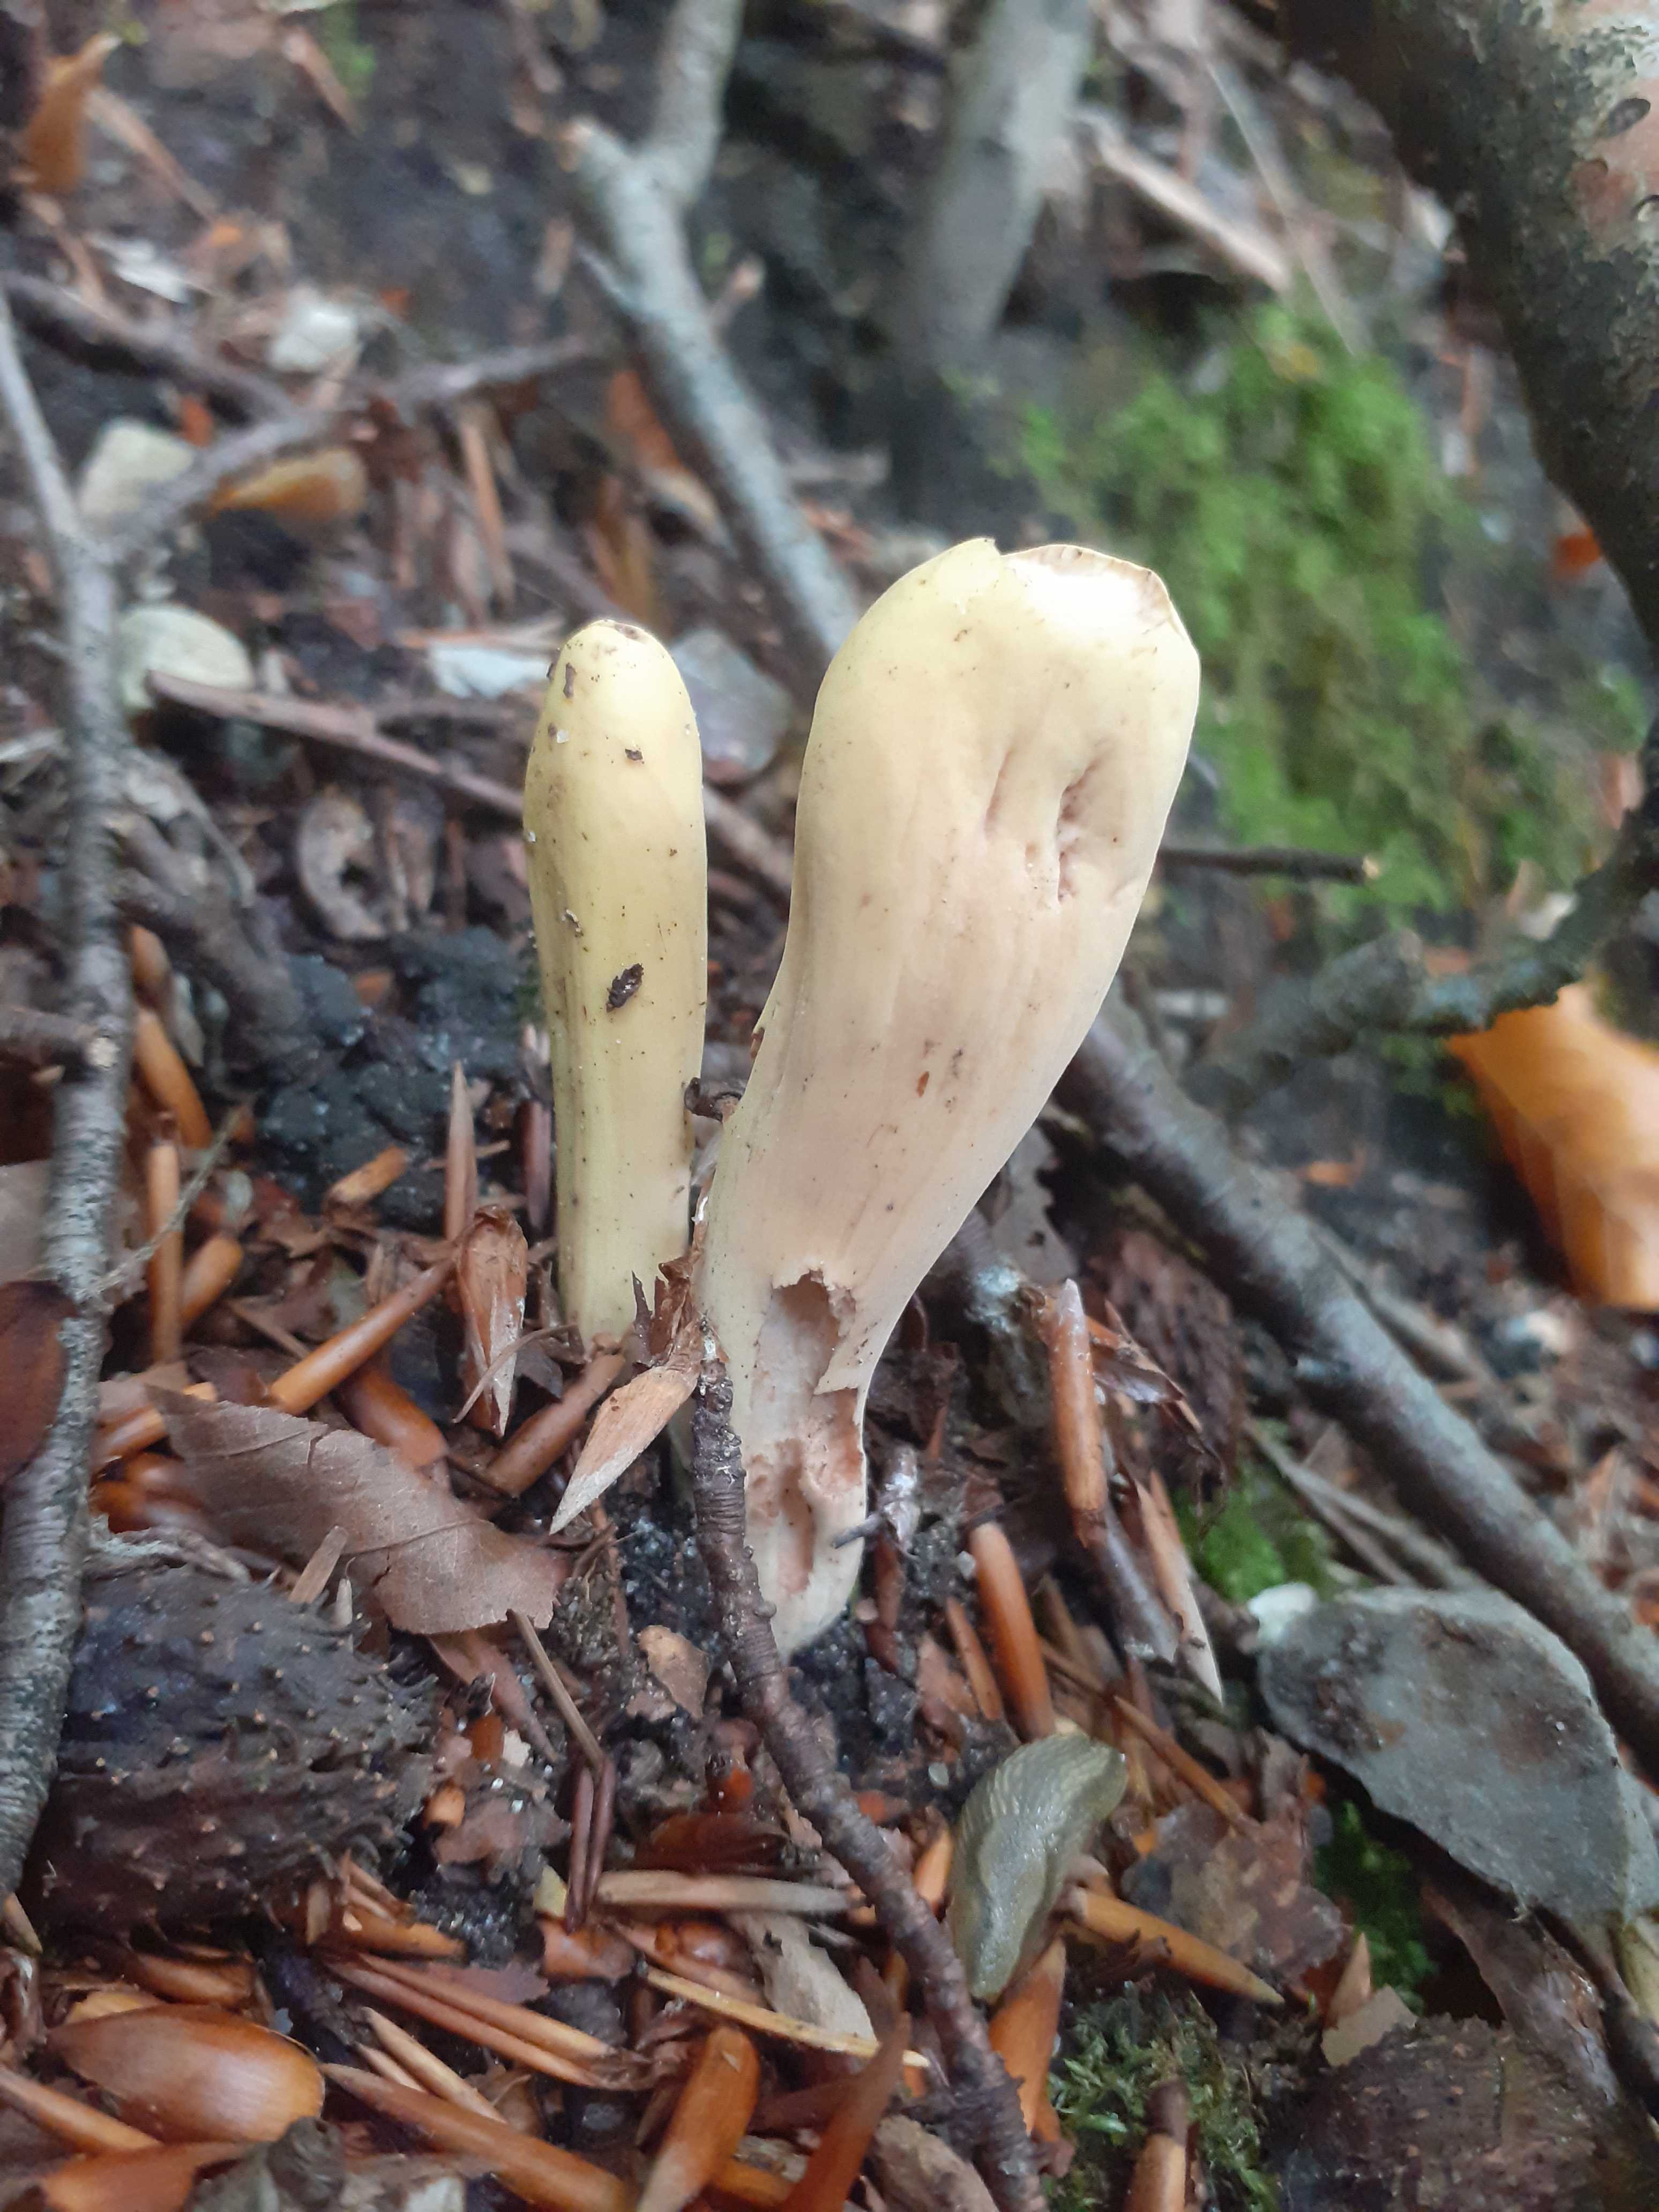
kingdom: Fungi
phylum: Basidiomycota
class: Agaricomycetes
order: Gomphales
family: Clavariadelphaceae
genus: Clavariadelphus
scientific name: Clavariadelphus pistillaris
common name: herkules-kæmpekølle
